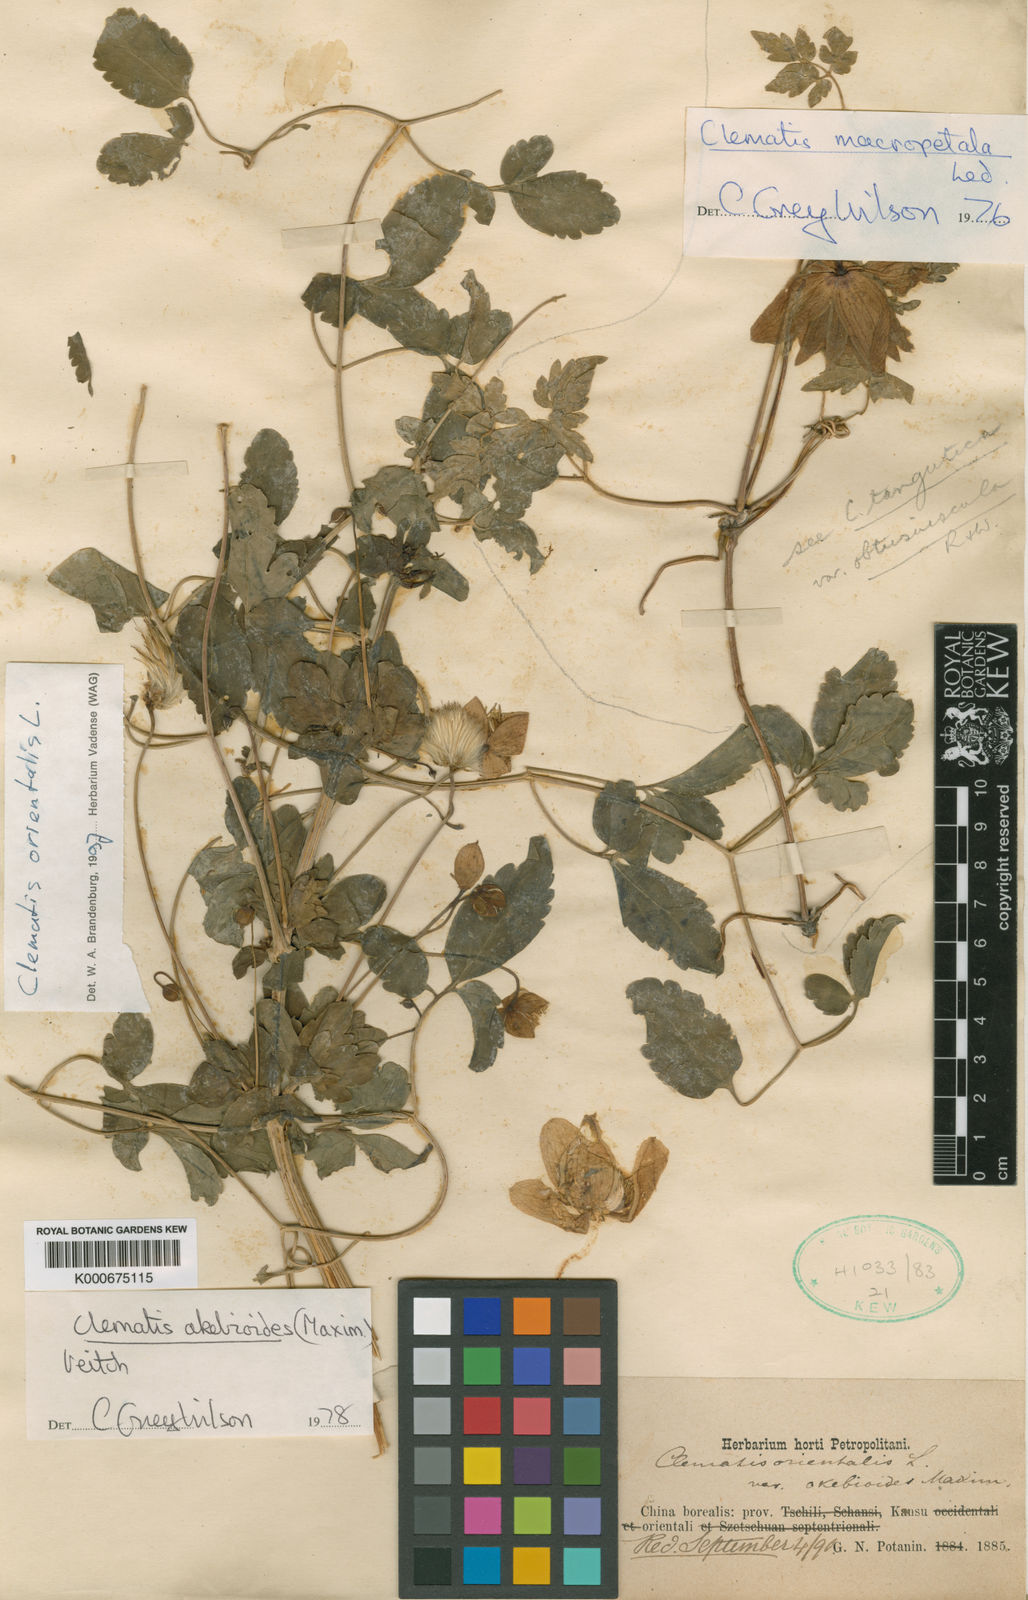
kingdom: Plantae
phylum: Tracheophyta
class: Magnoliopsida
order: Ranunculales
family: Ranunculaceae
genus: Clematis
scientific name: Clematis akebioides
